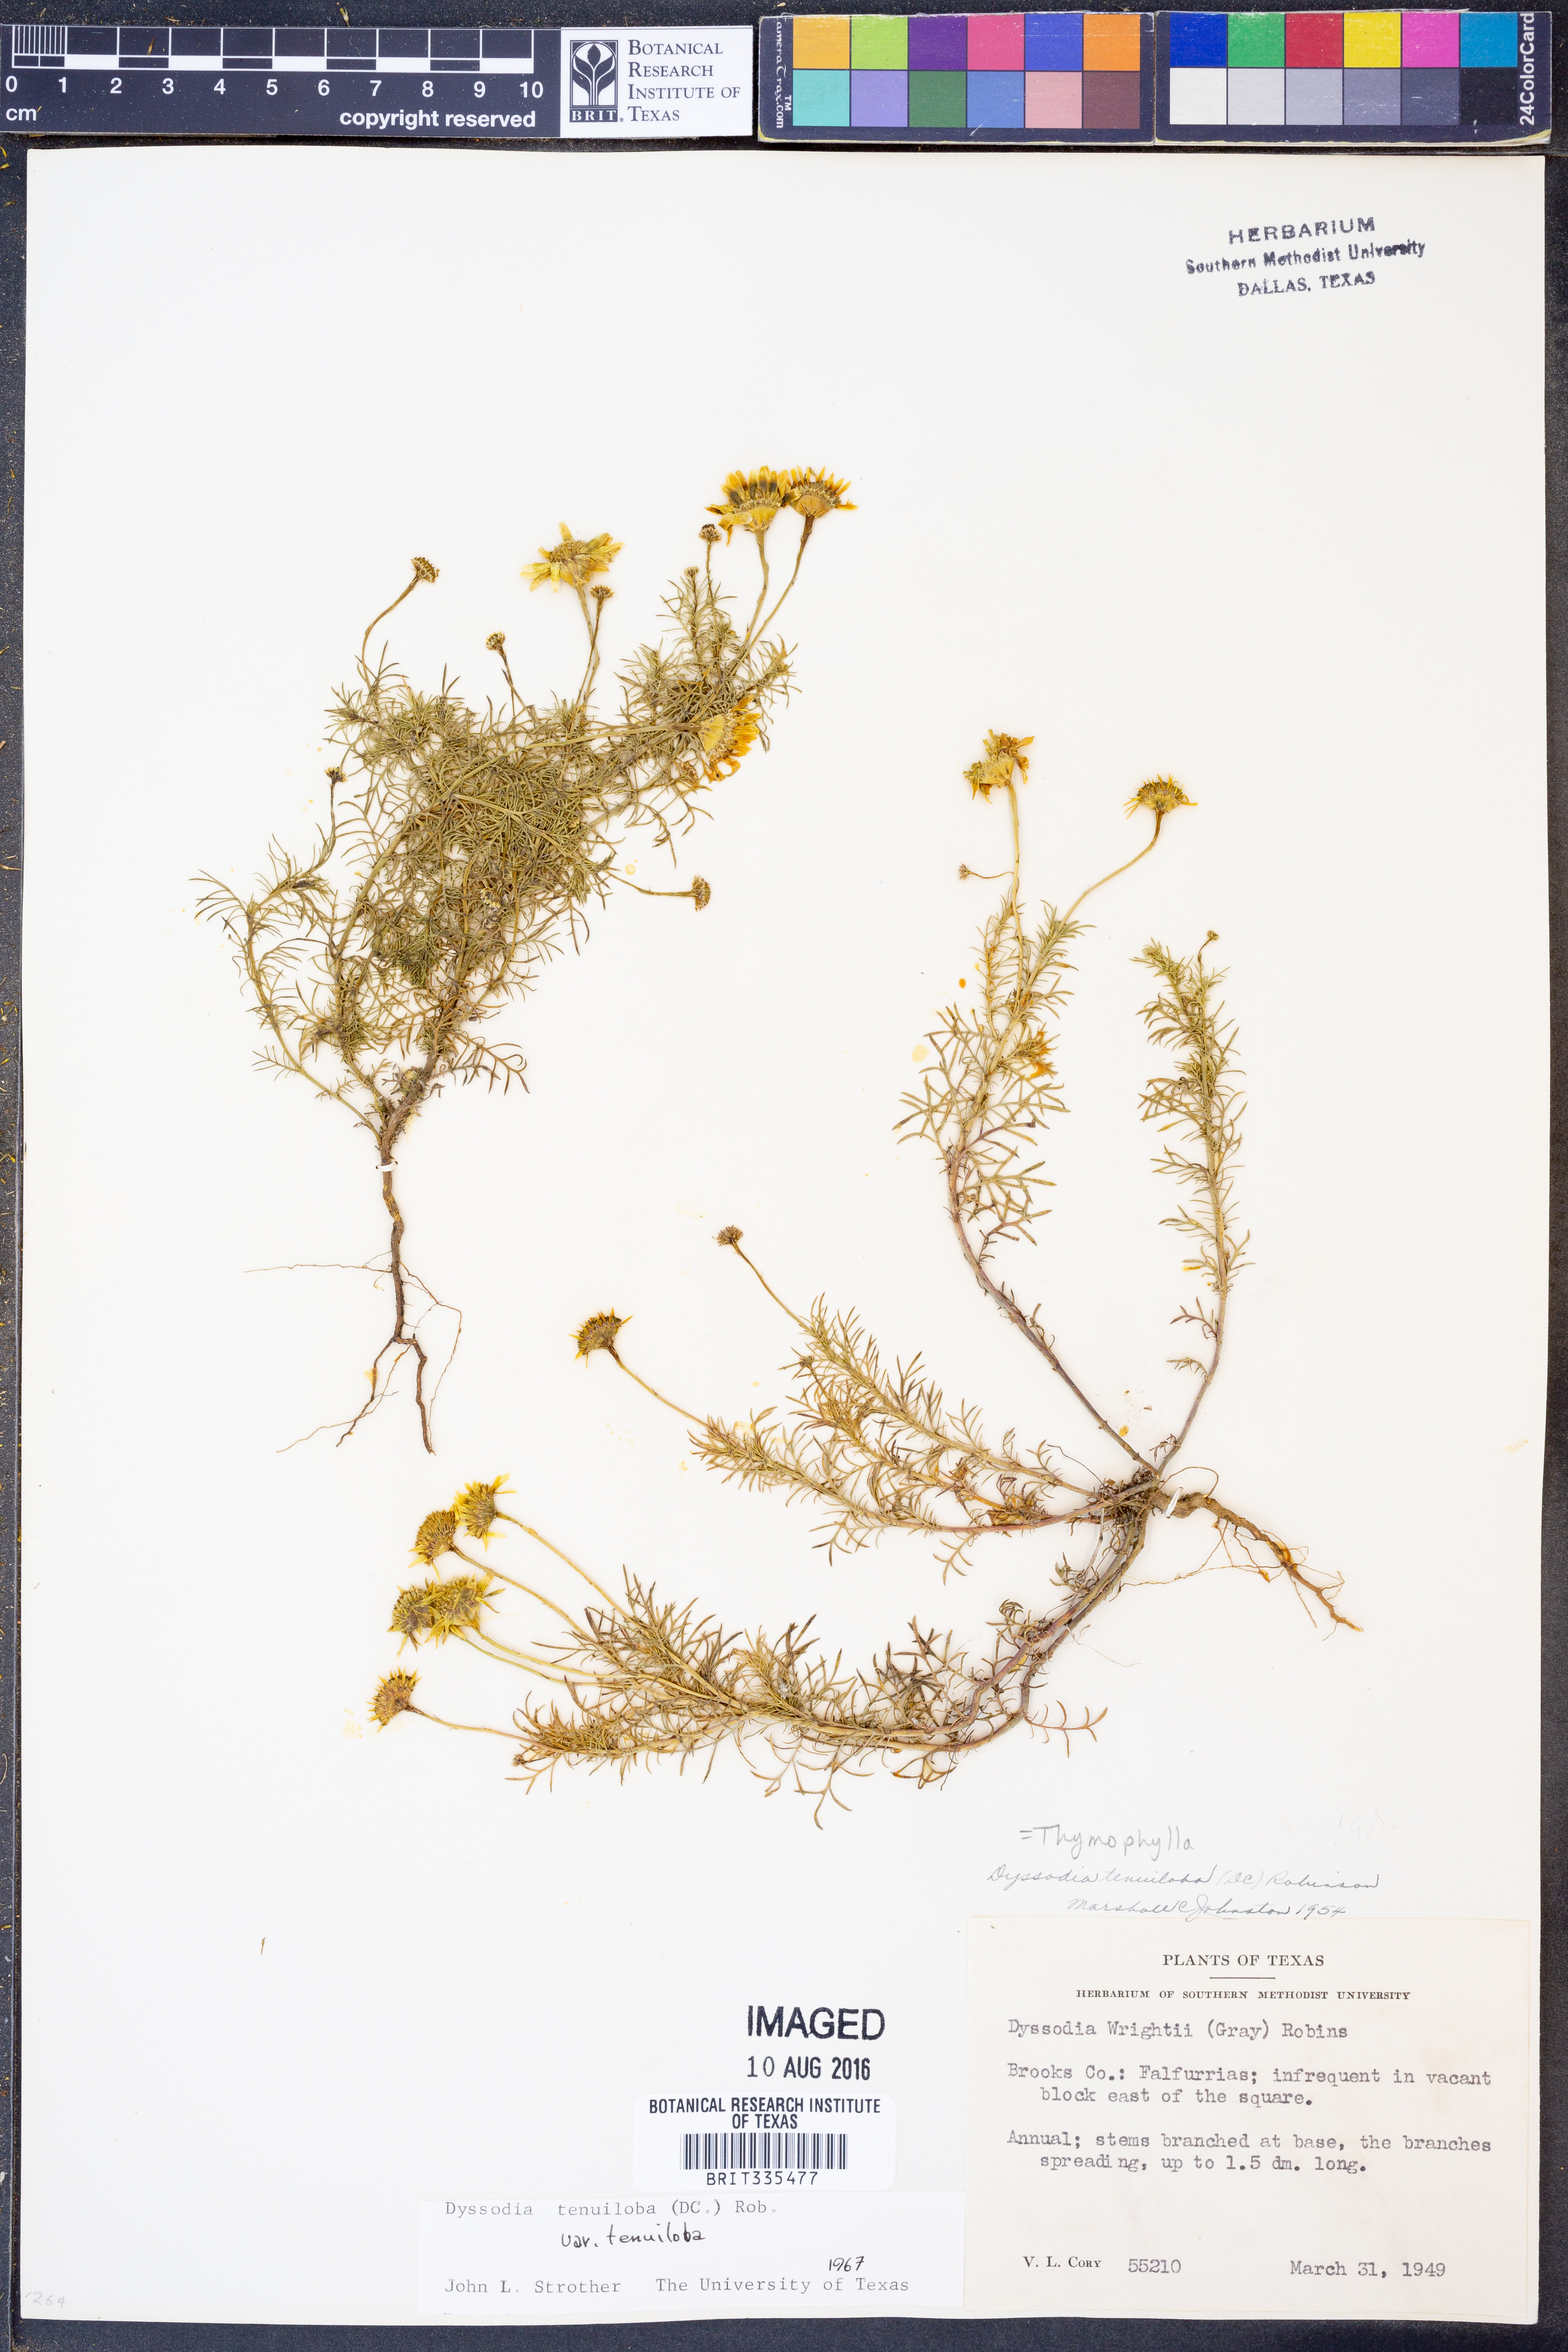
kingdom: Plantae
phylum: Tracheophyta
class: Magnoliopsida
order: Asterales
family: Asteraceae
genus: Thymophylla
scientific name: Thymophylla tenuiloba
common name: Dahlberg's daisy
